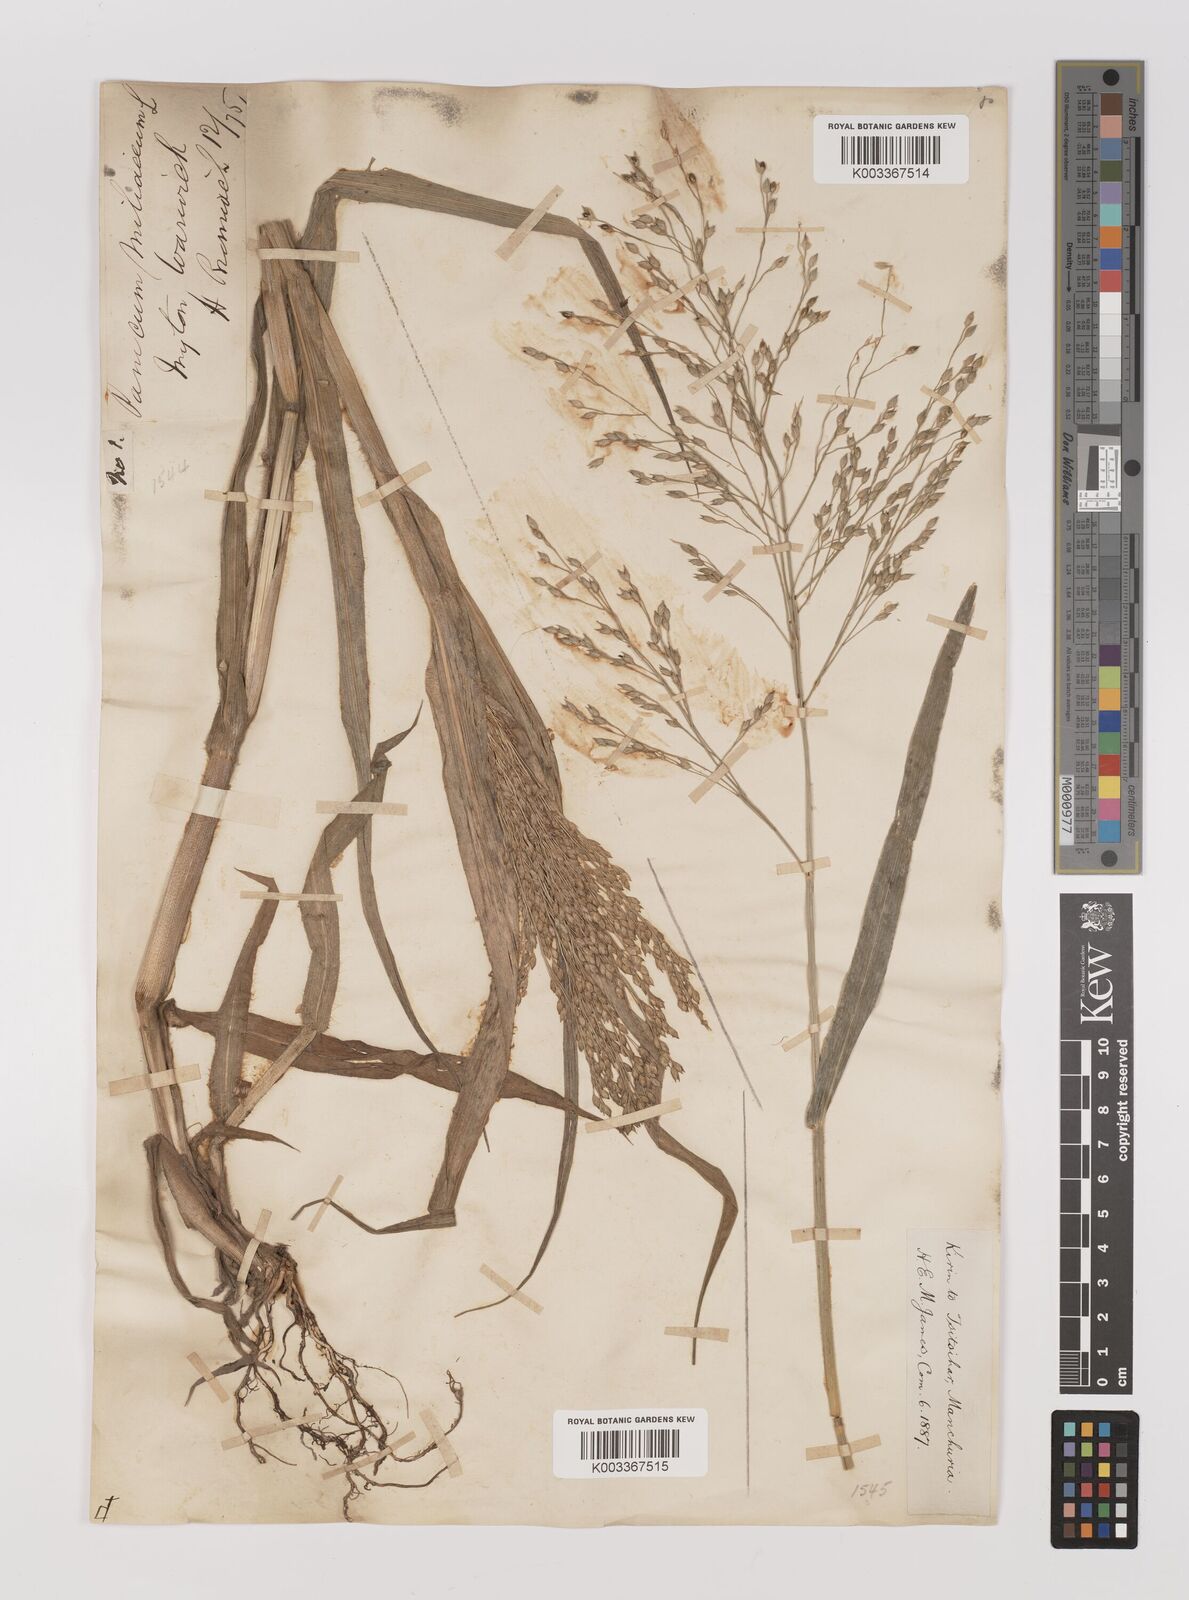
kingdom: Plantae
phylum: Tracheophyta
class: Liliopsida
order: Poales
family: Poaceae
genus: Panicum
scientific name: Panicum miliaceum
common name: Common millet
